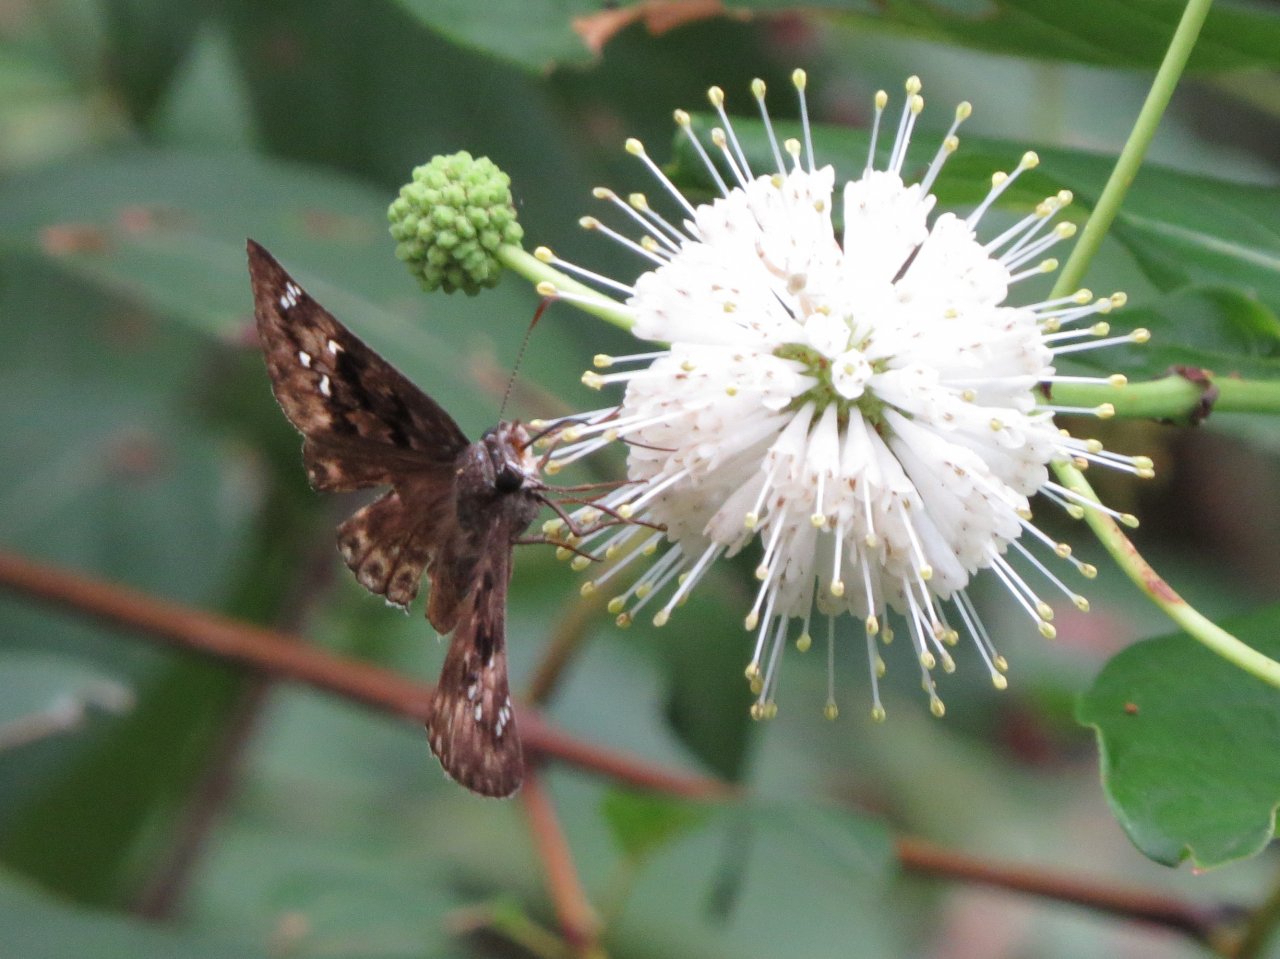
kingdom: Animalia
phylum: Arthropoda
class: Insecta
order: Lepidoptera
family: Hesperiidae
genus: Gesta
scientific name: Gesta
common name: Horace's Duskywing
